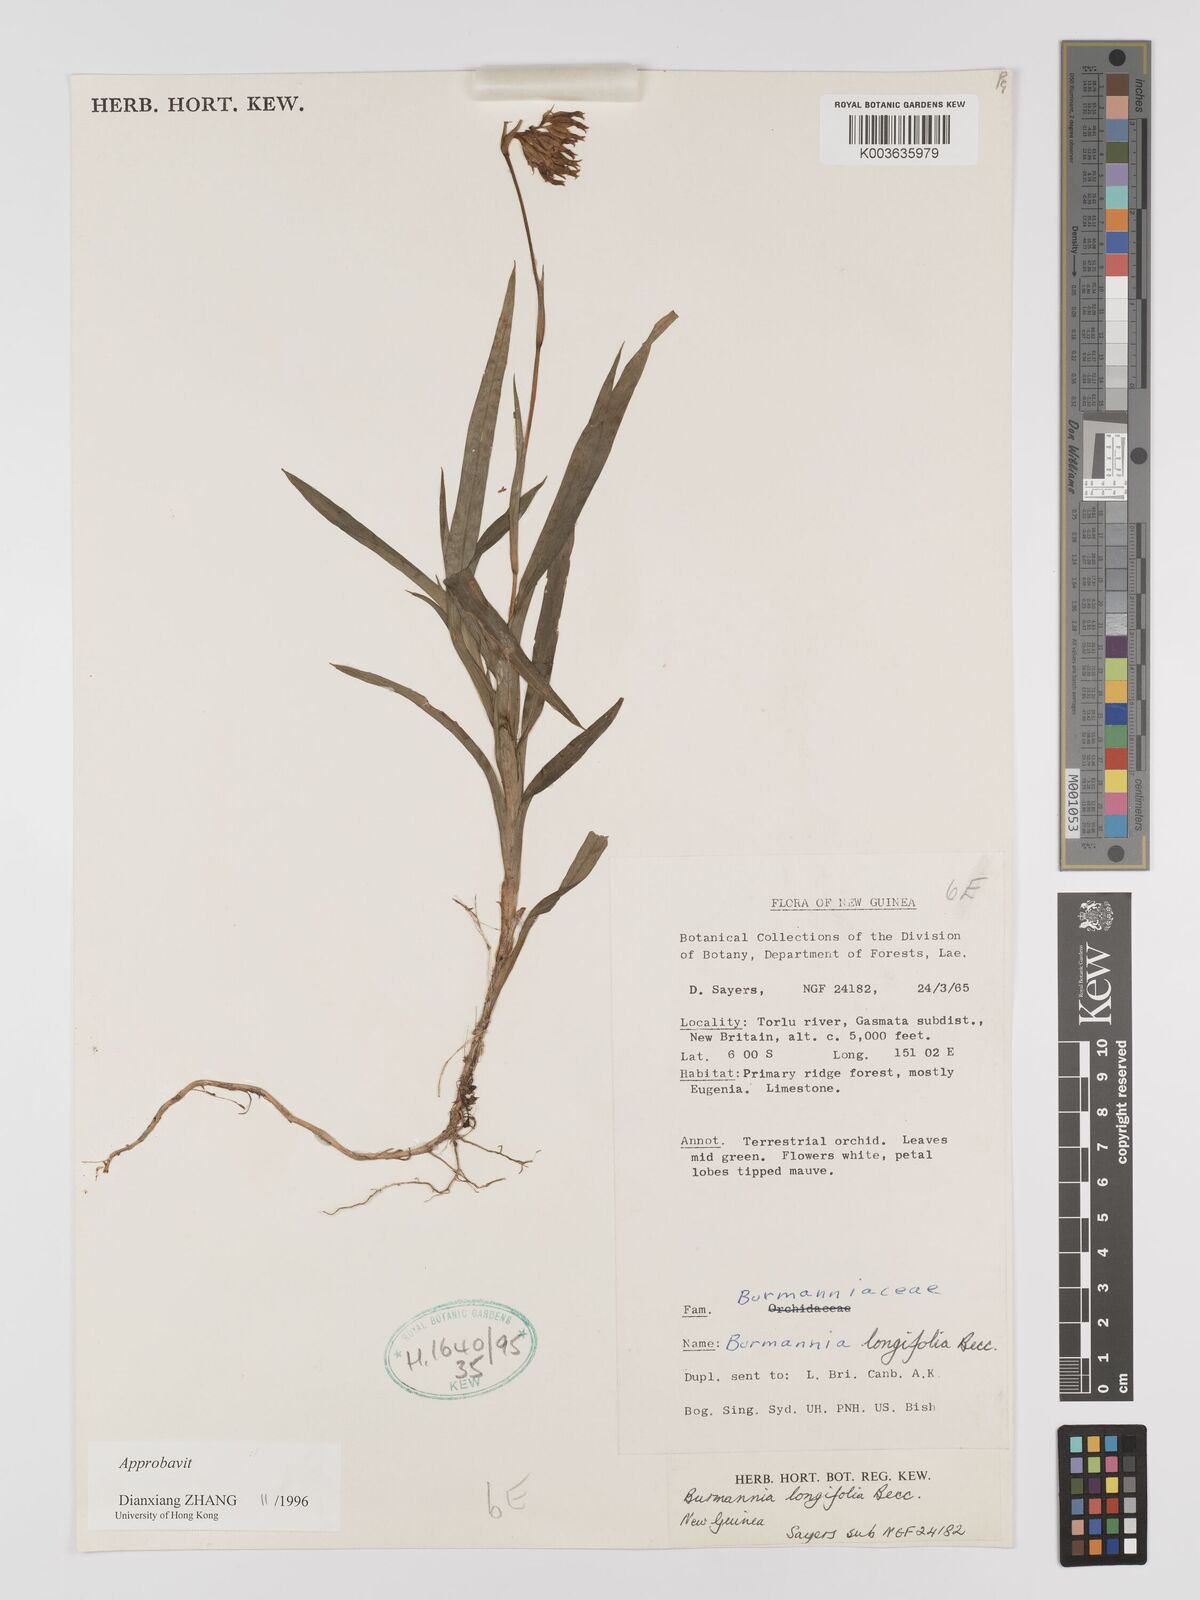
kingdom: Plantae
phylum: Tracheophyta
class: Liliopsida
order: Dioscoreales
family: Burmanniaceae
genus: Burmannia
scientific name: Burmannia longifolia
